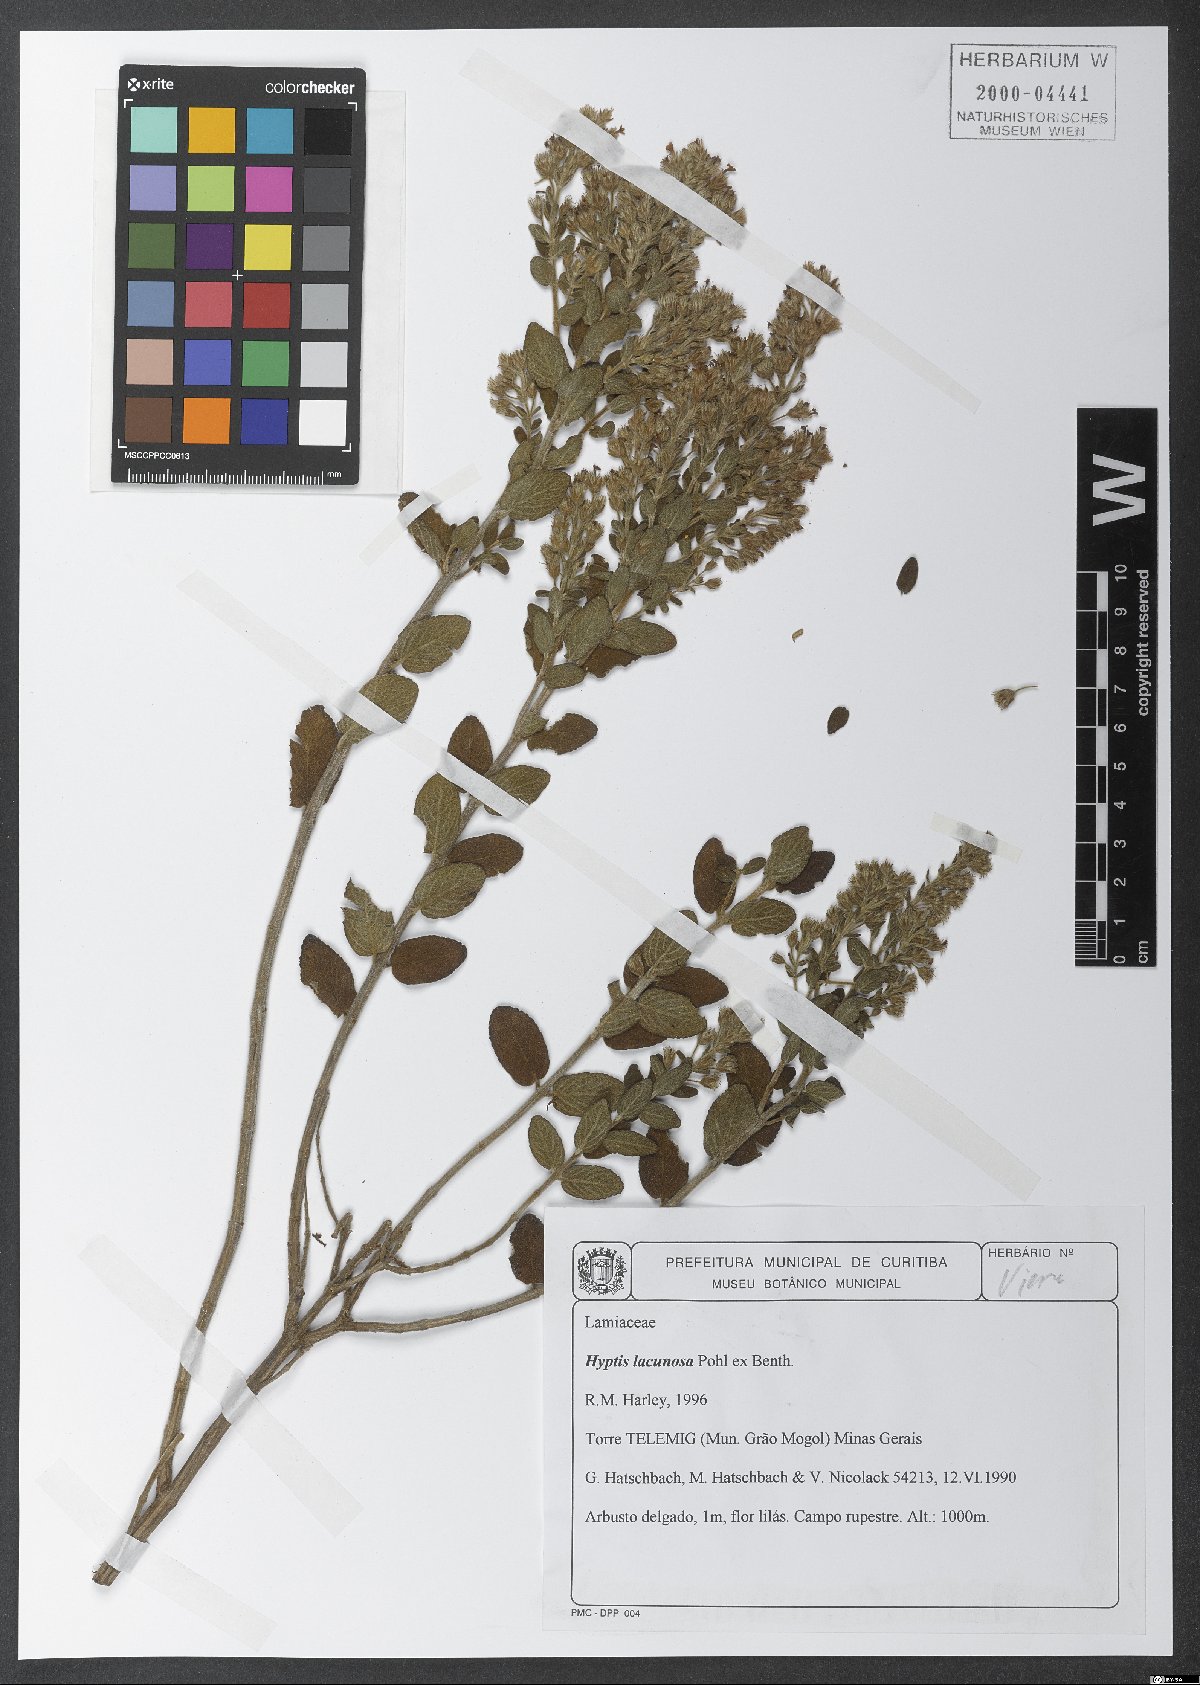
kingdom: Plantae
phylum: Tracheophyta
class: Magnoliopsida
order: Lamiales
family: Lamiaceae
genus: Oocephalus
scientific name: Oocephalus lacunosus
